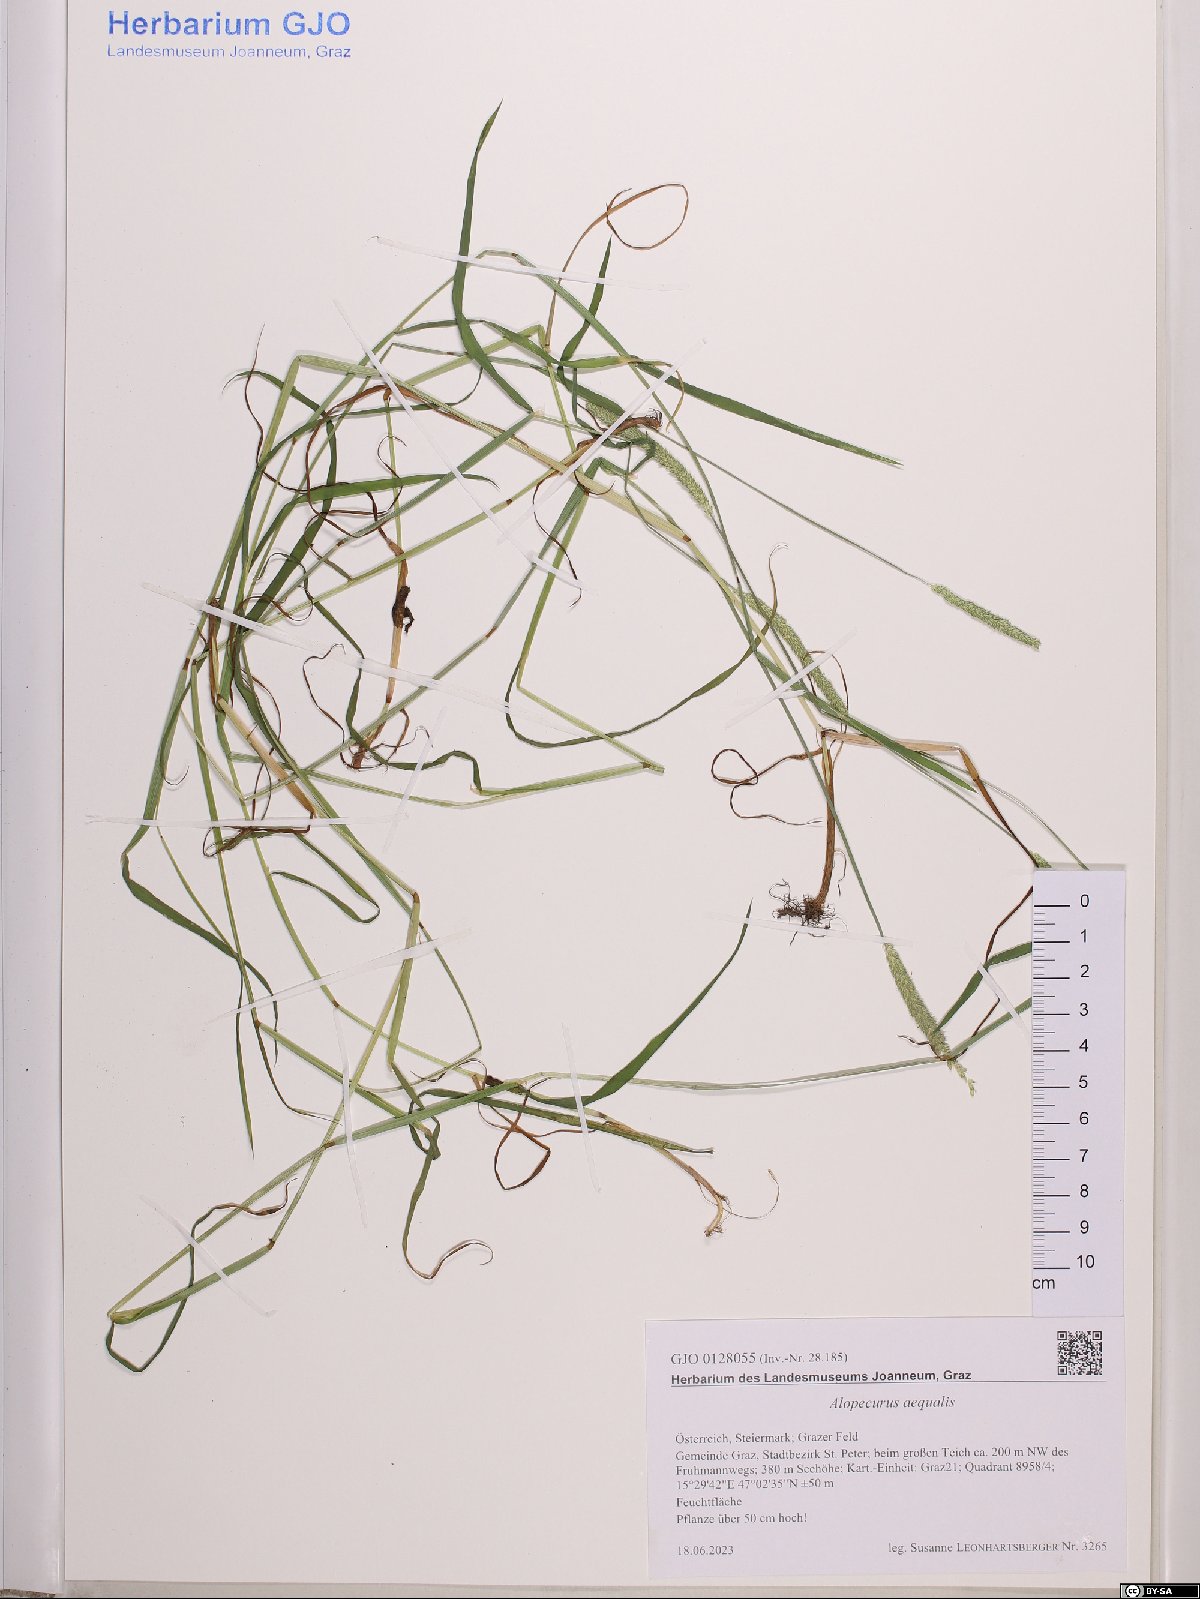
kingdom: Plantae
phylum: Tracheophyta
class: Liliopsida
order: Poales
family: Poaceae
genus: Alopecurus
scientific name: Alopecurus aequalis
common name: Orange foxtail
